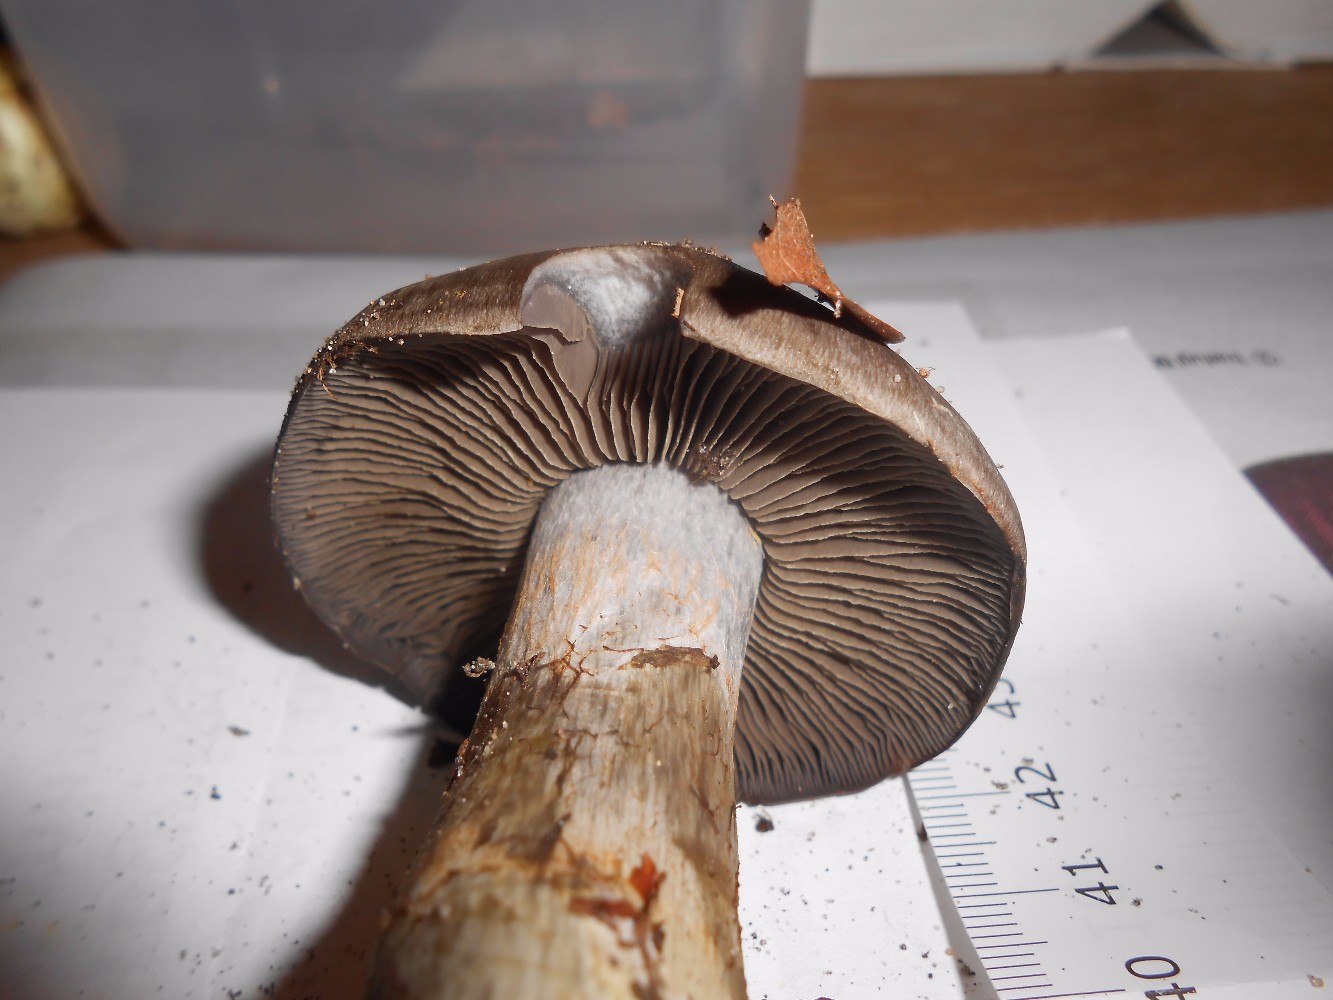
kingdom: Fungi
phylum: Basidiomycota
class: Agaricomycetes
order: Agaricales
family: Cortinariaceae
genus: Cortinarius
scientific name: Cortinarius
